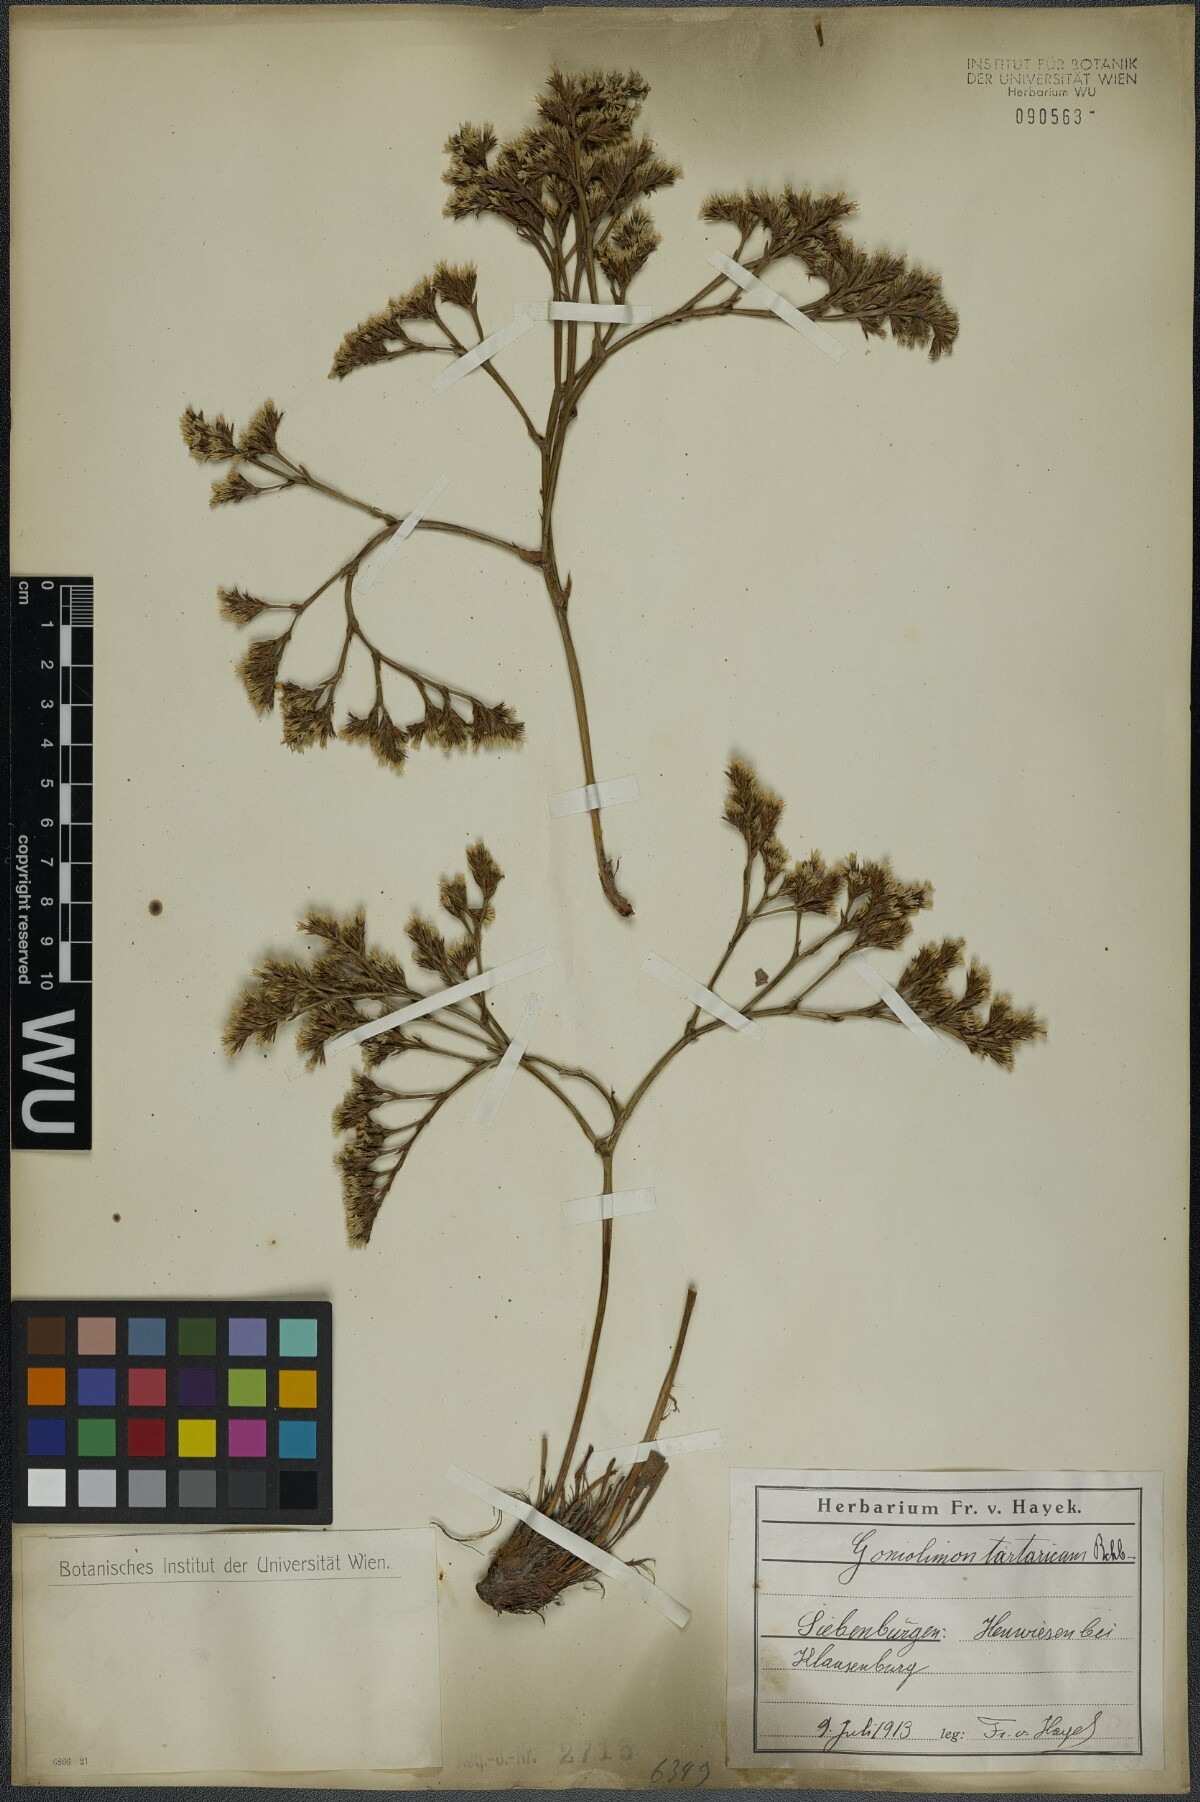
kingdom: Plantae
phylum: Tracheophyta
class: Magnoliopsida
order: Caryophyllales
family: Plumbaginaceae
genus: Goniolimon
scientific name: Goniolimon tataricum
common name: Statice
